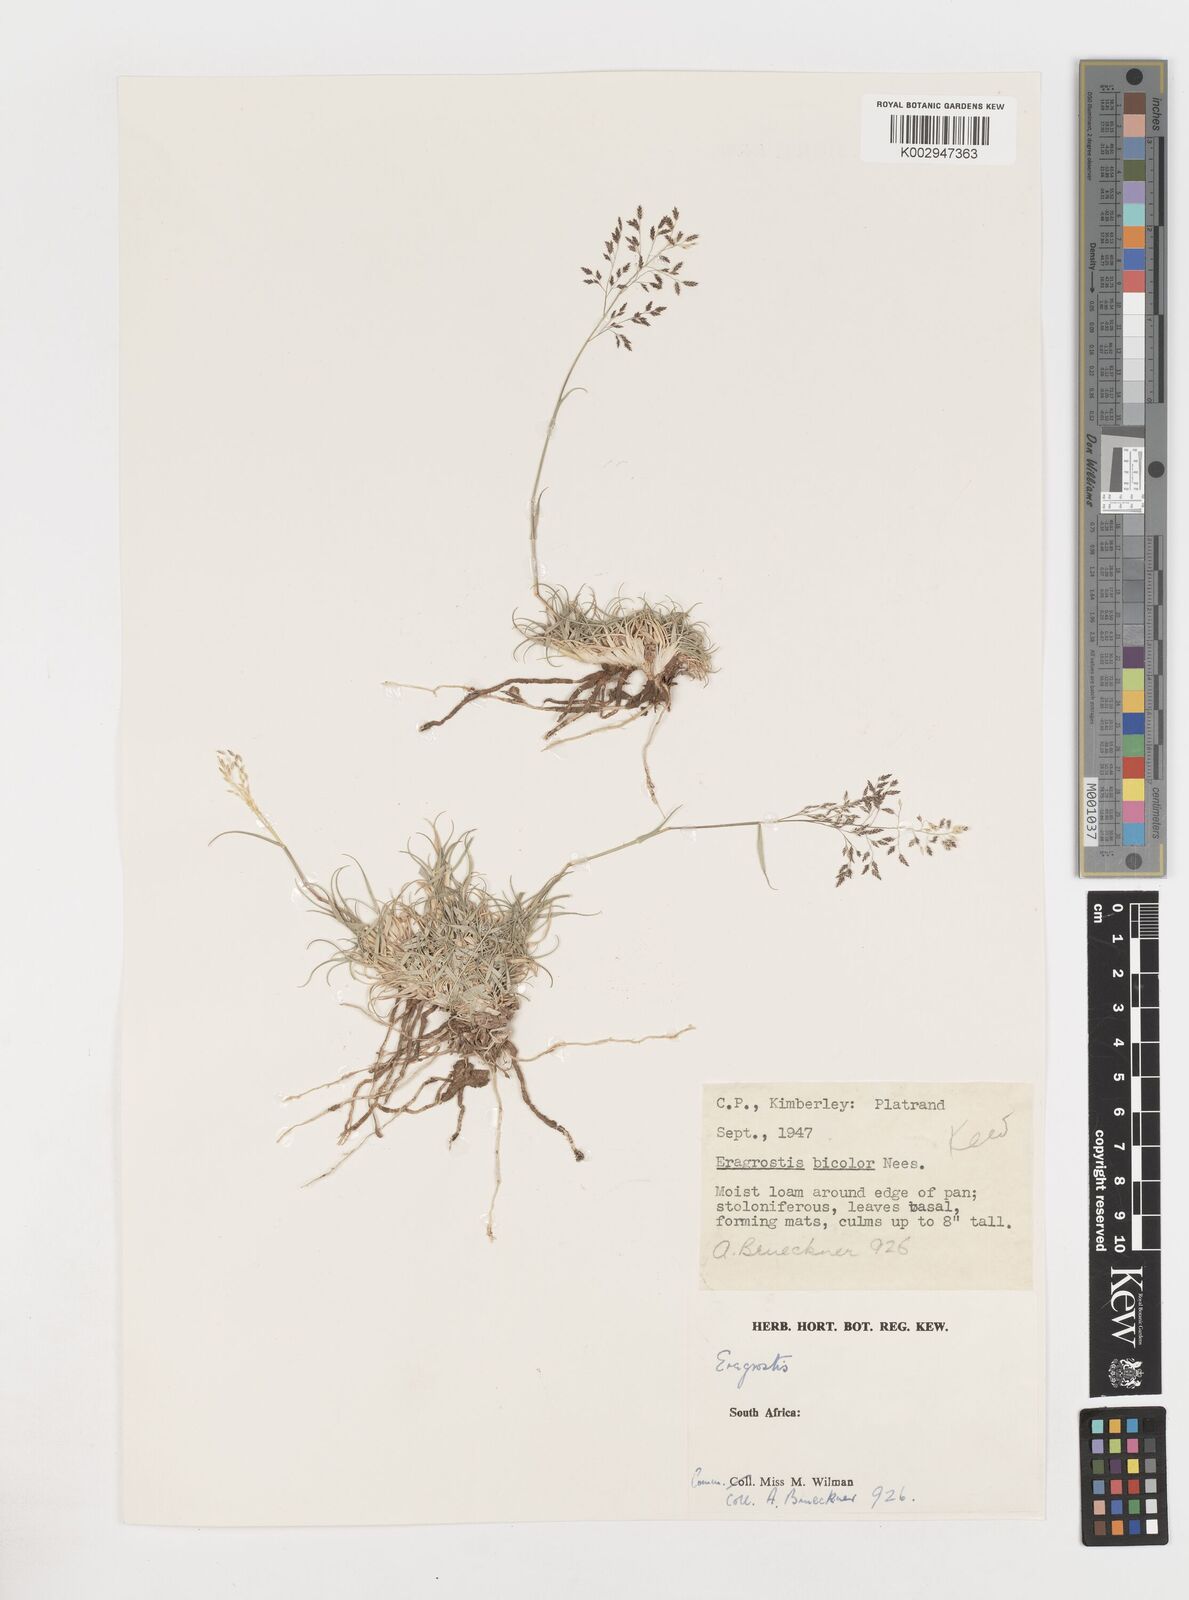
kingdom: Plantae
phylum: Tracheophyta
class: Liliopsida
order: Poales
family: Poaceae
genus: Eragrostis
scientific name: Eragrostis
